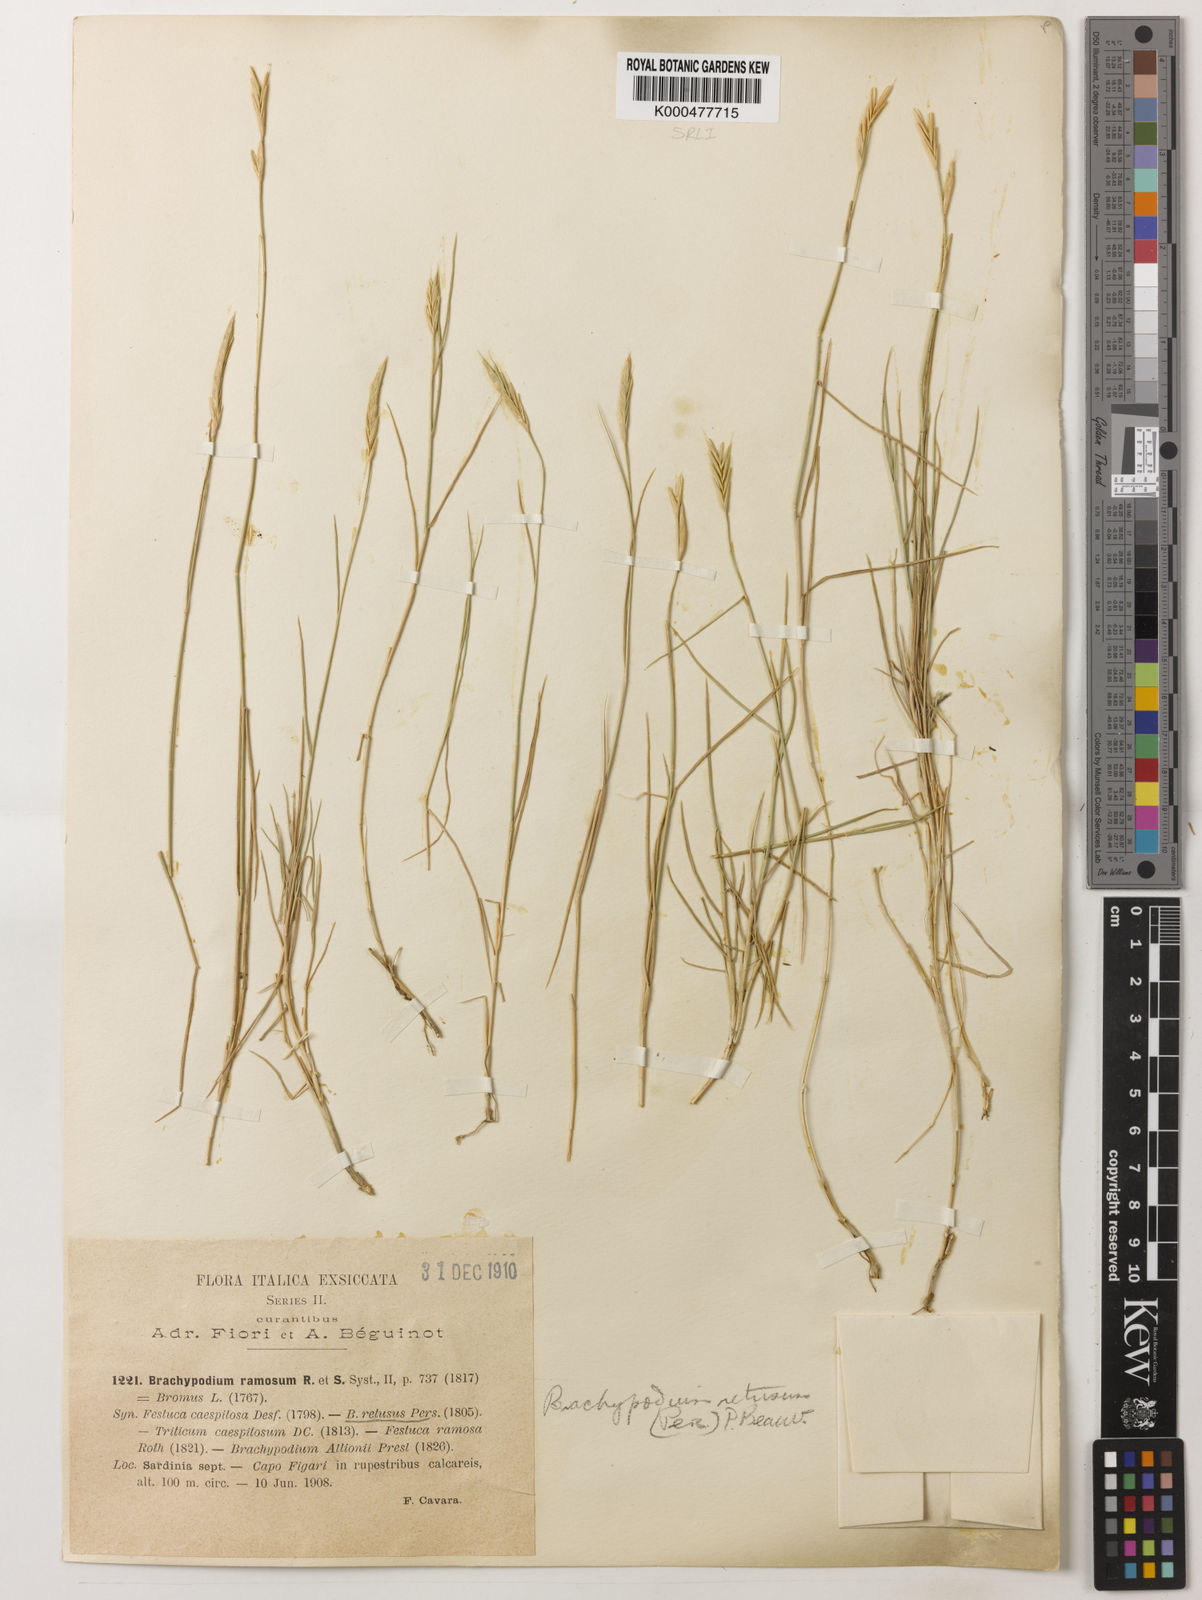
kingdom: Plantae
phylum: Tracheophyta
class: Liliopsida
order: Poales
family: Poaceae
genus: Brachypodium
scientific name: Brachypodium retusum
